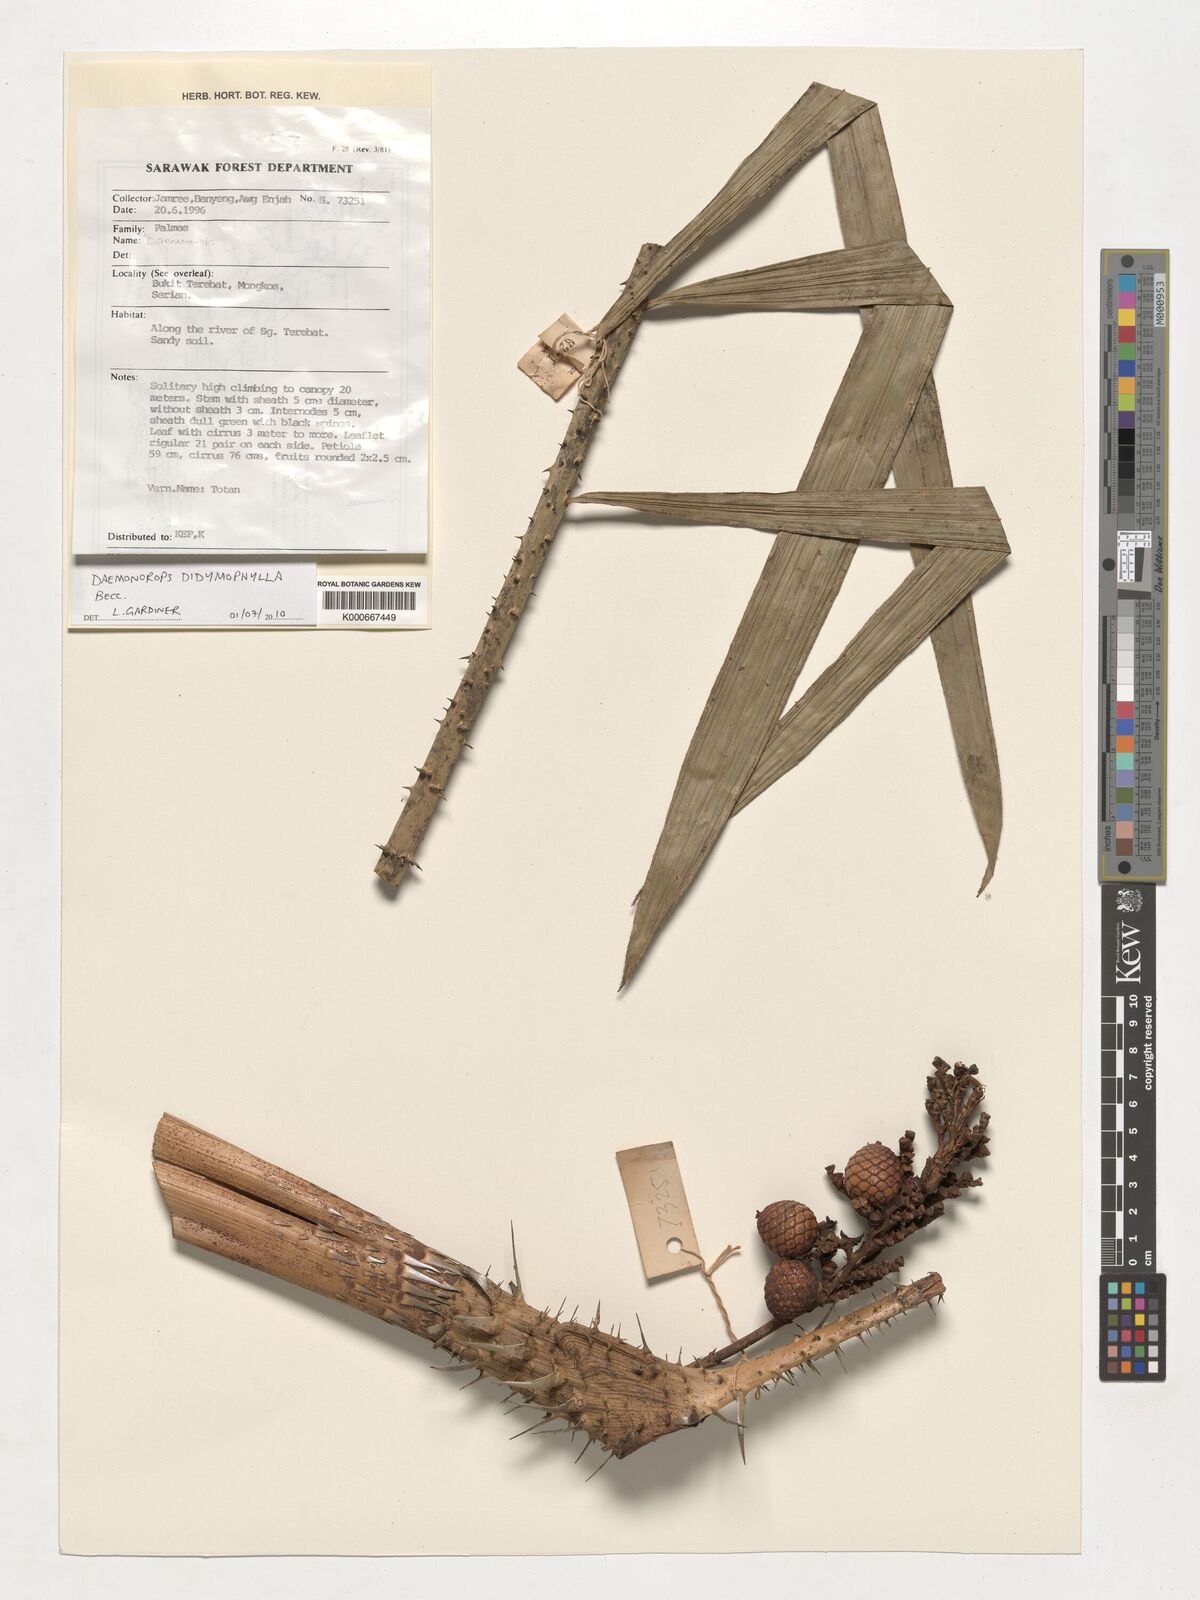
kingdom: Plantae
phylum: Tracheophyta
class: Liliopsida
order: Arecales
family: Arecaceae
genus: Calamus
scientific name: Calamus gracilipes
